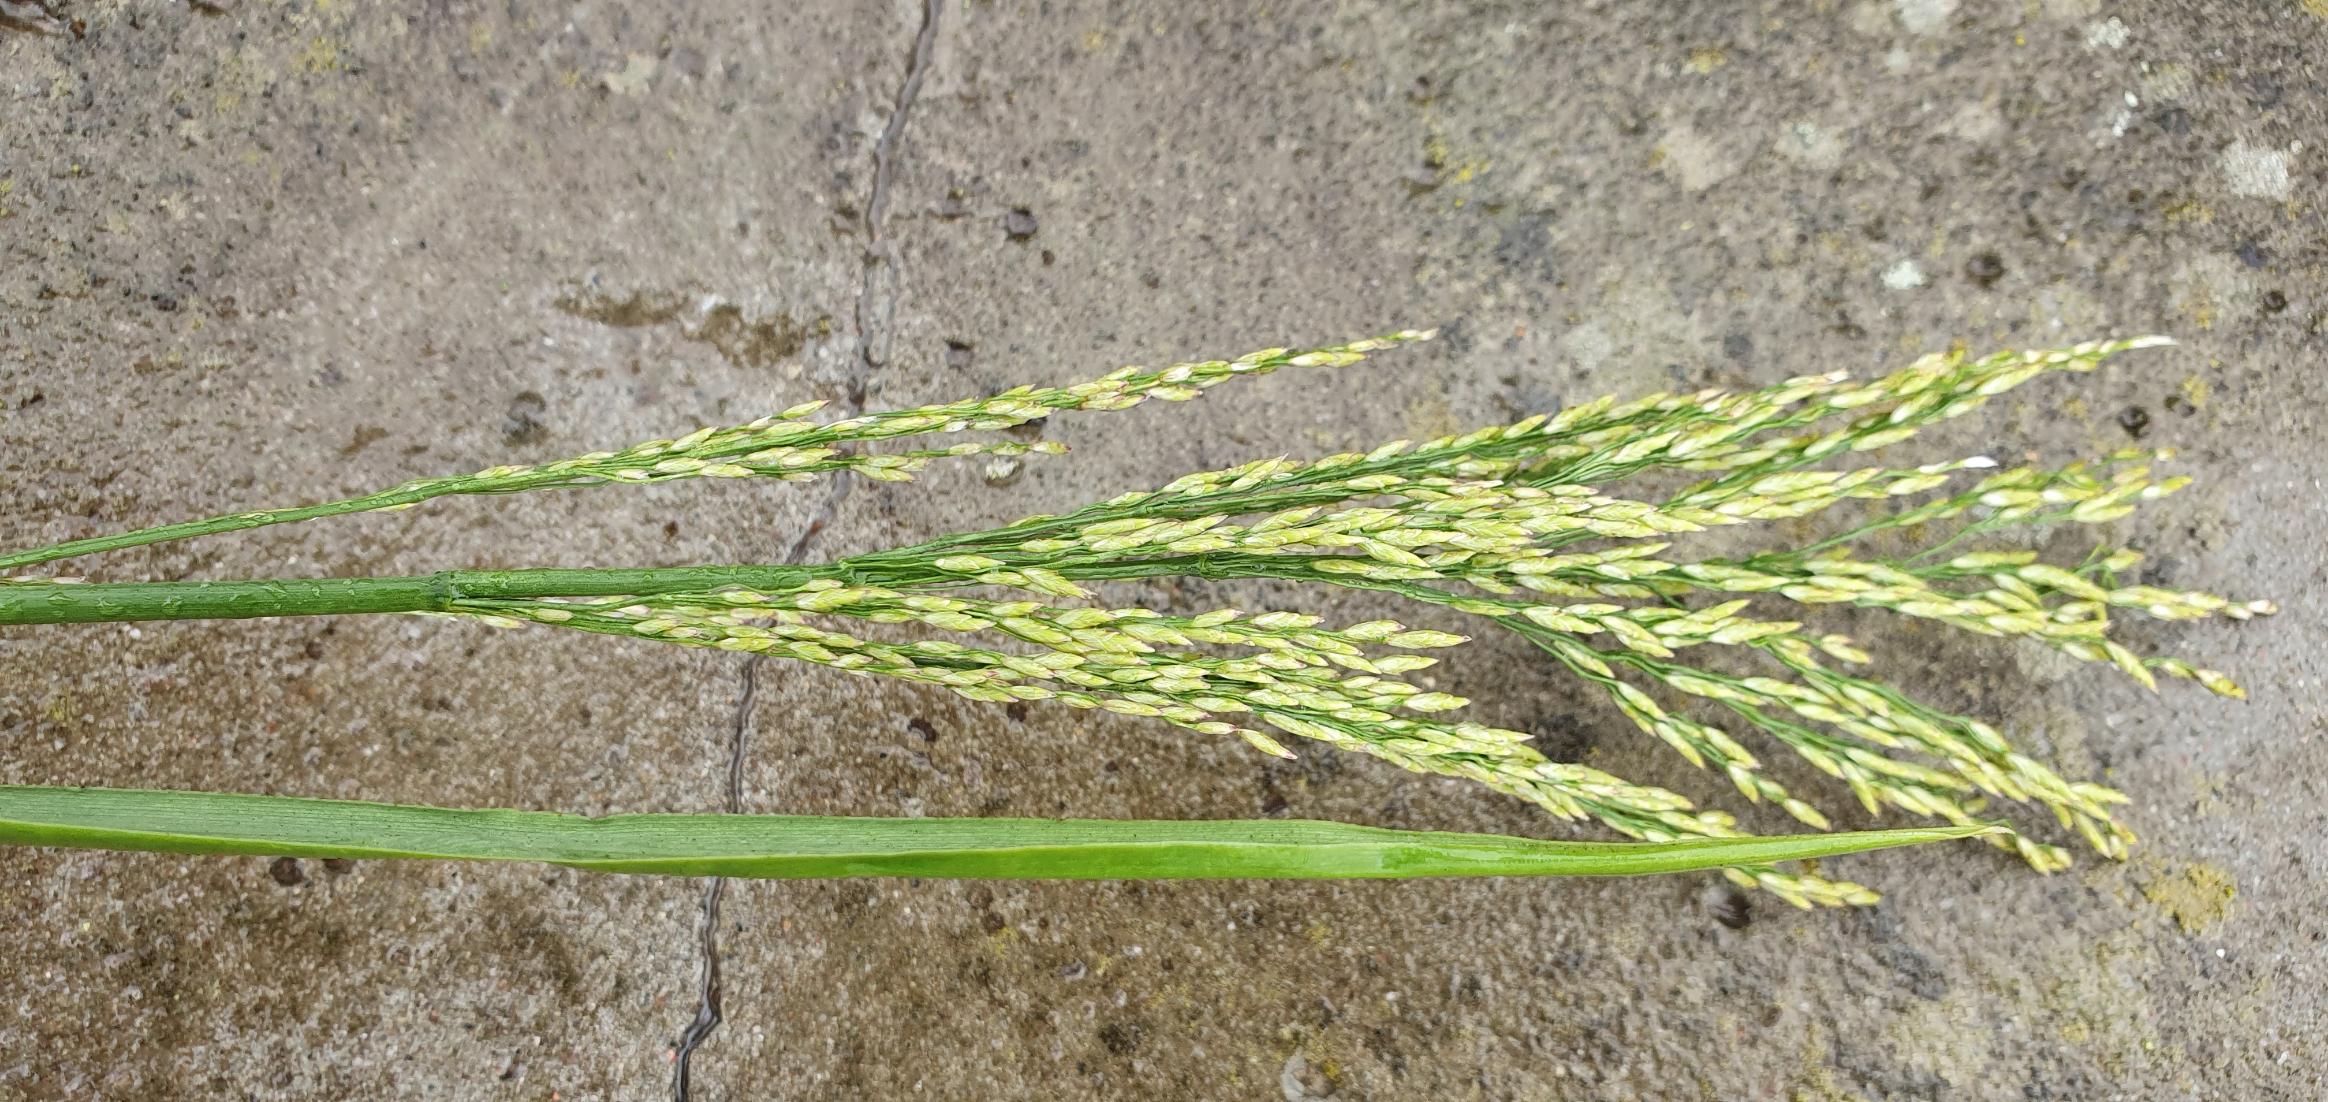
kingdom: Plantae
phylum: Tracheophyta
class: Liliopsida
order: Poales
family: Poaceae
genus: Glyceria
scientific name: Glyceria maxima
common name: Høj sødgræs
